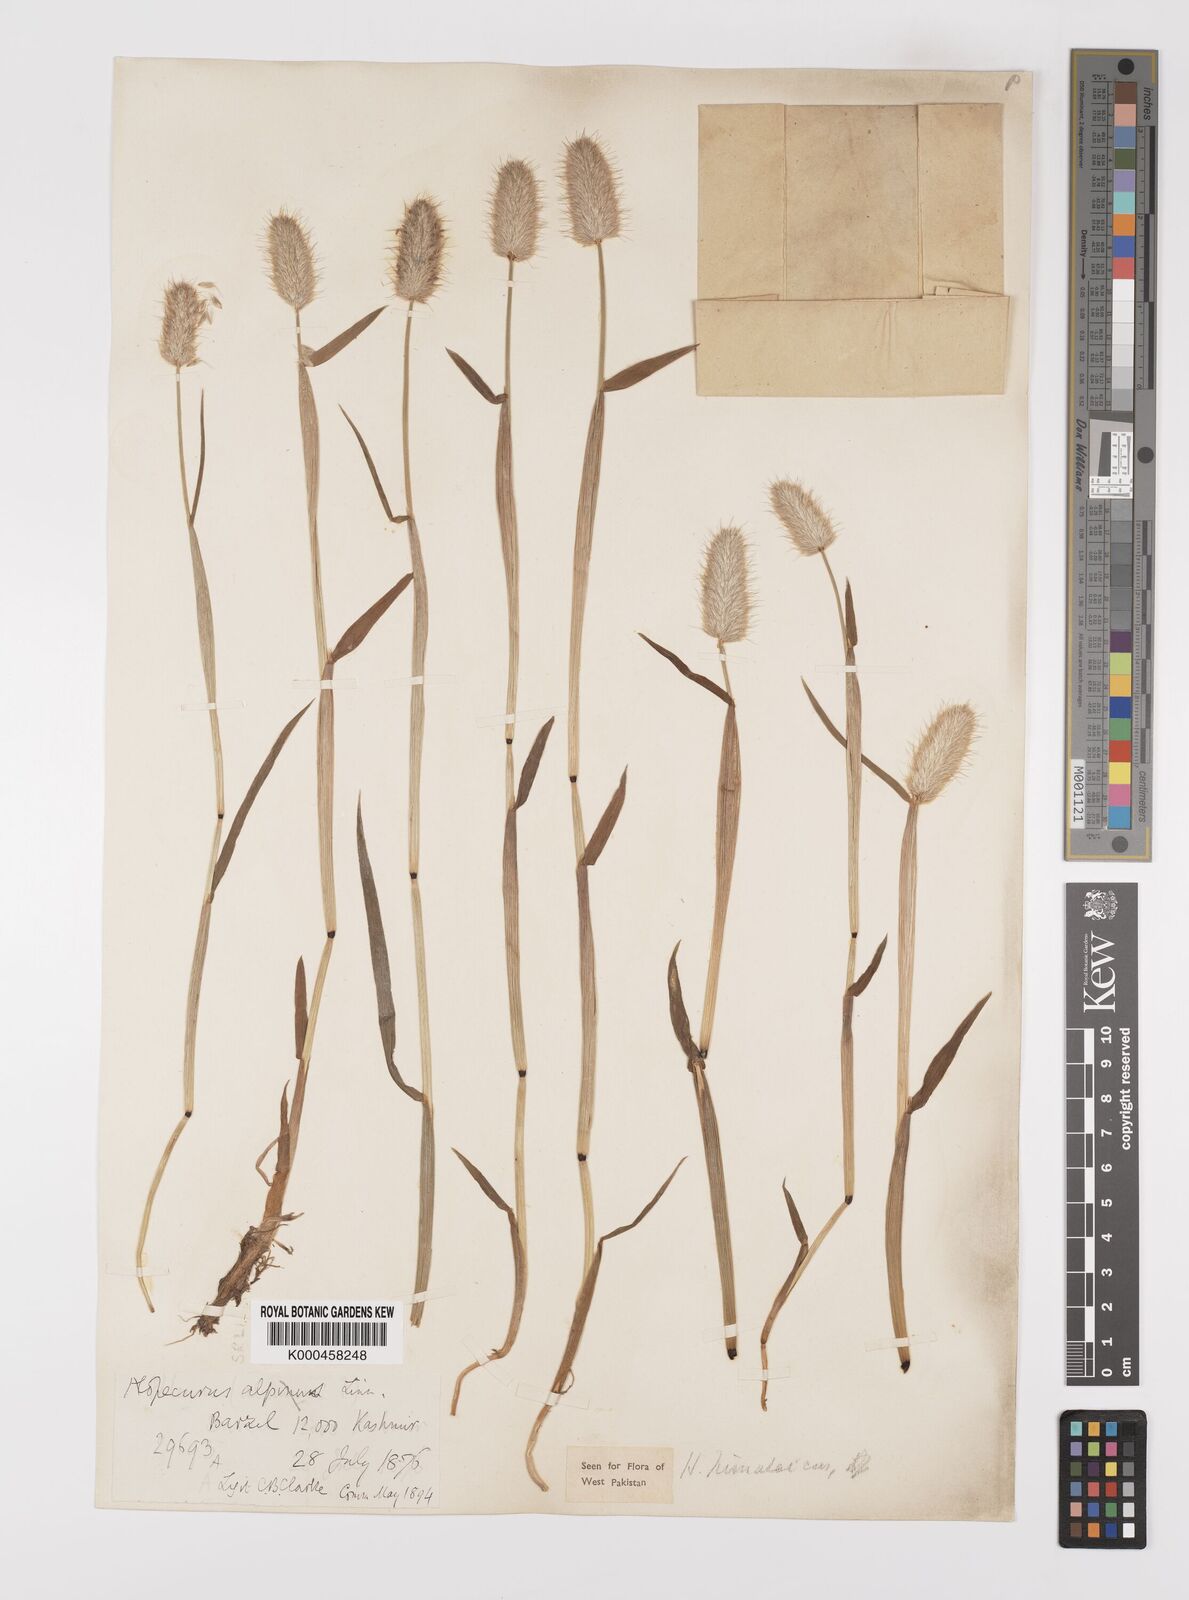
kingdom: Plantae
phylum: Tracheophyta
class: Liliopsida
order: Poales
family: Poaceae
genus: Alopecurus
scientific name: Alopecurus himalaicus
